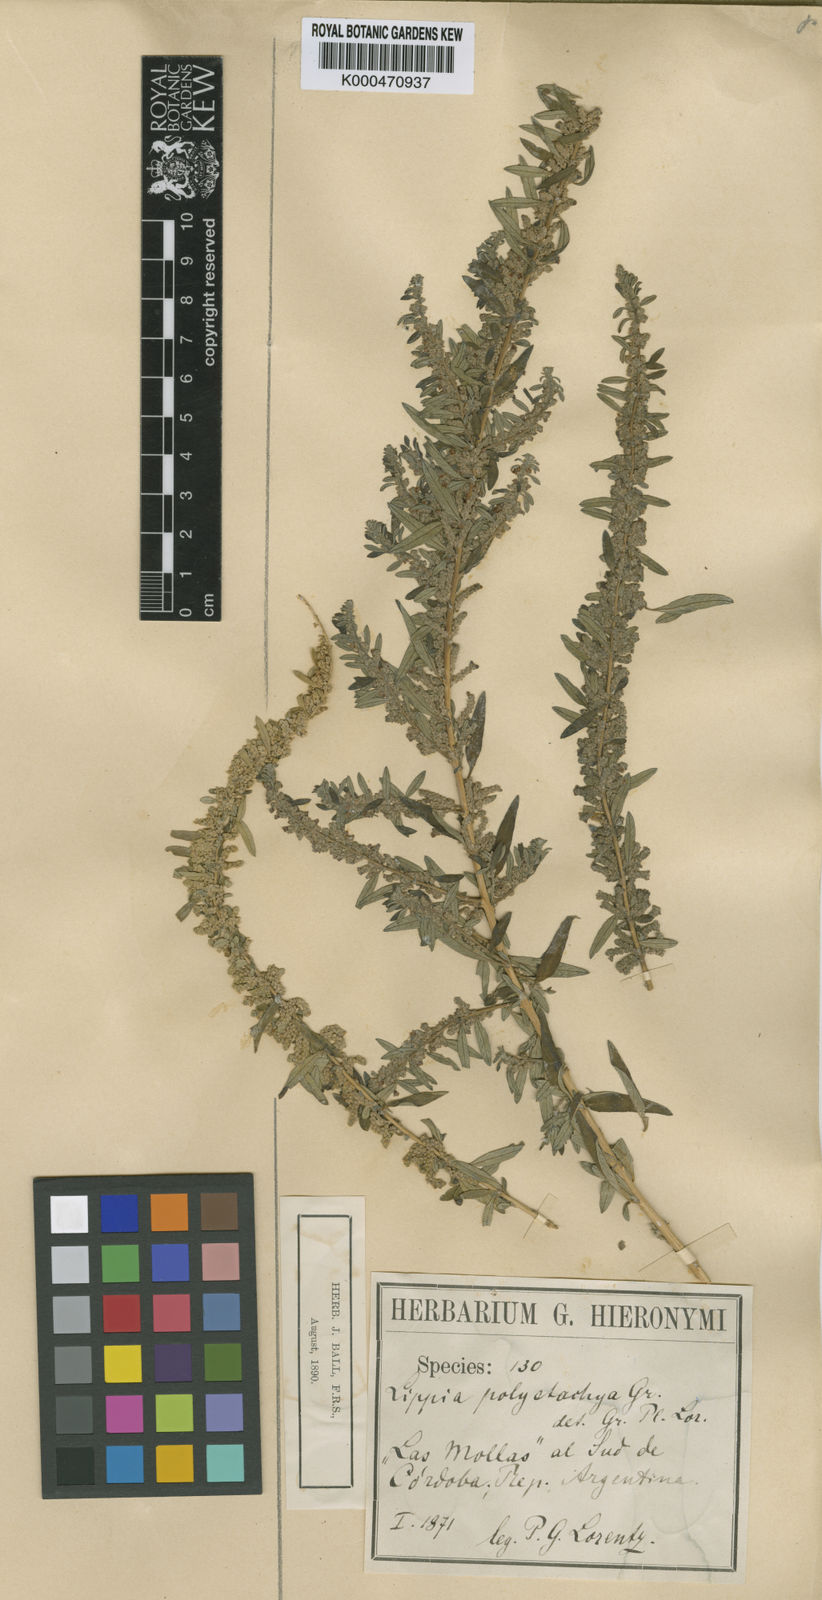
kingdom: Plantae
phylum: Tracheophyta
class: Magnoliopsida
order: Lamiales
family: Verbenaceae
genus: Aloysia
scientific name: Aloysia polystachya
